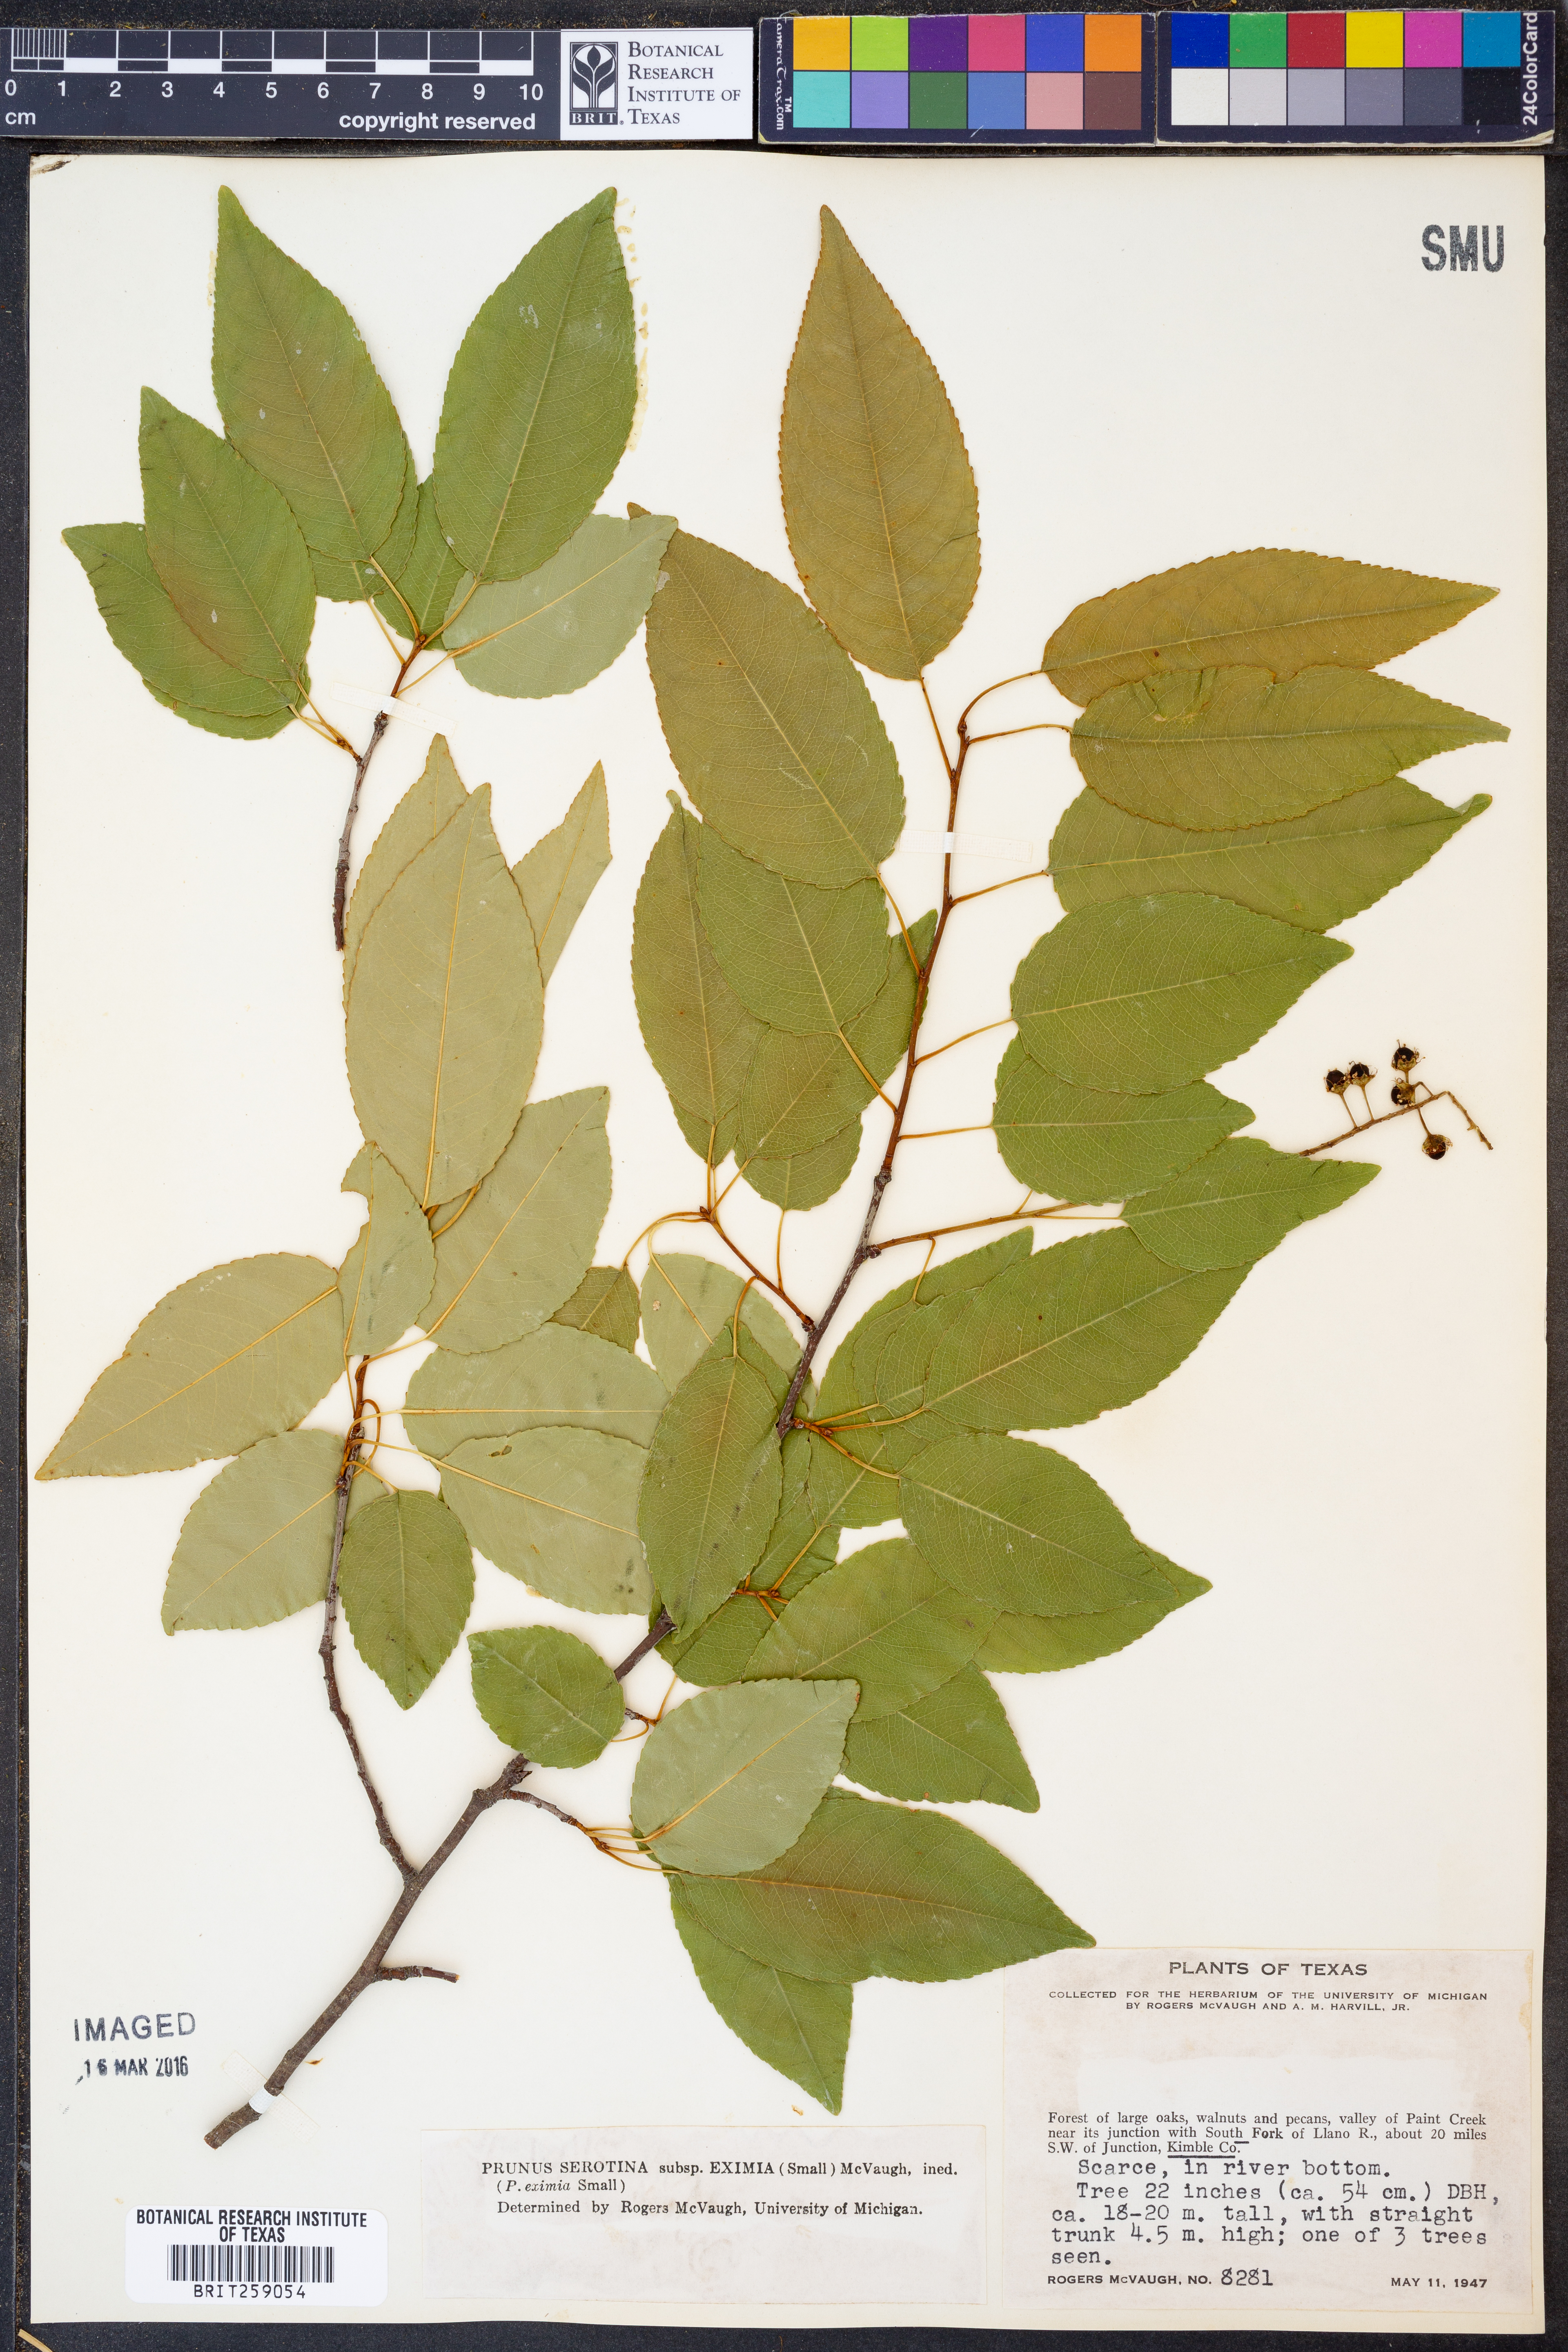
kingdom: Plantae
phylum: Tracheophyta
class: Magnoliopsida
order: Rosales
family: Rosaceae
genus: Prunus
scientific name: Prunus serotina
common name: Black cherry
